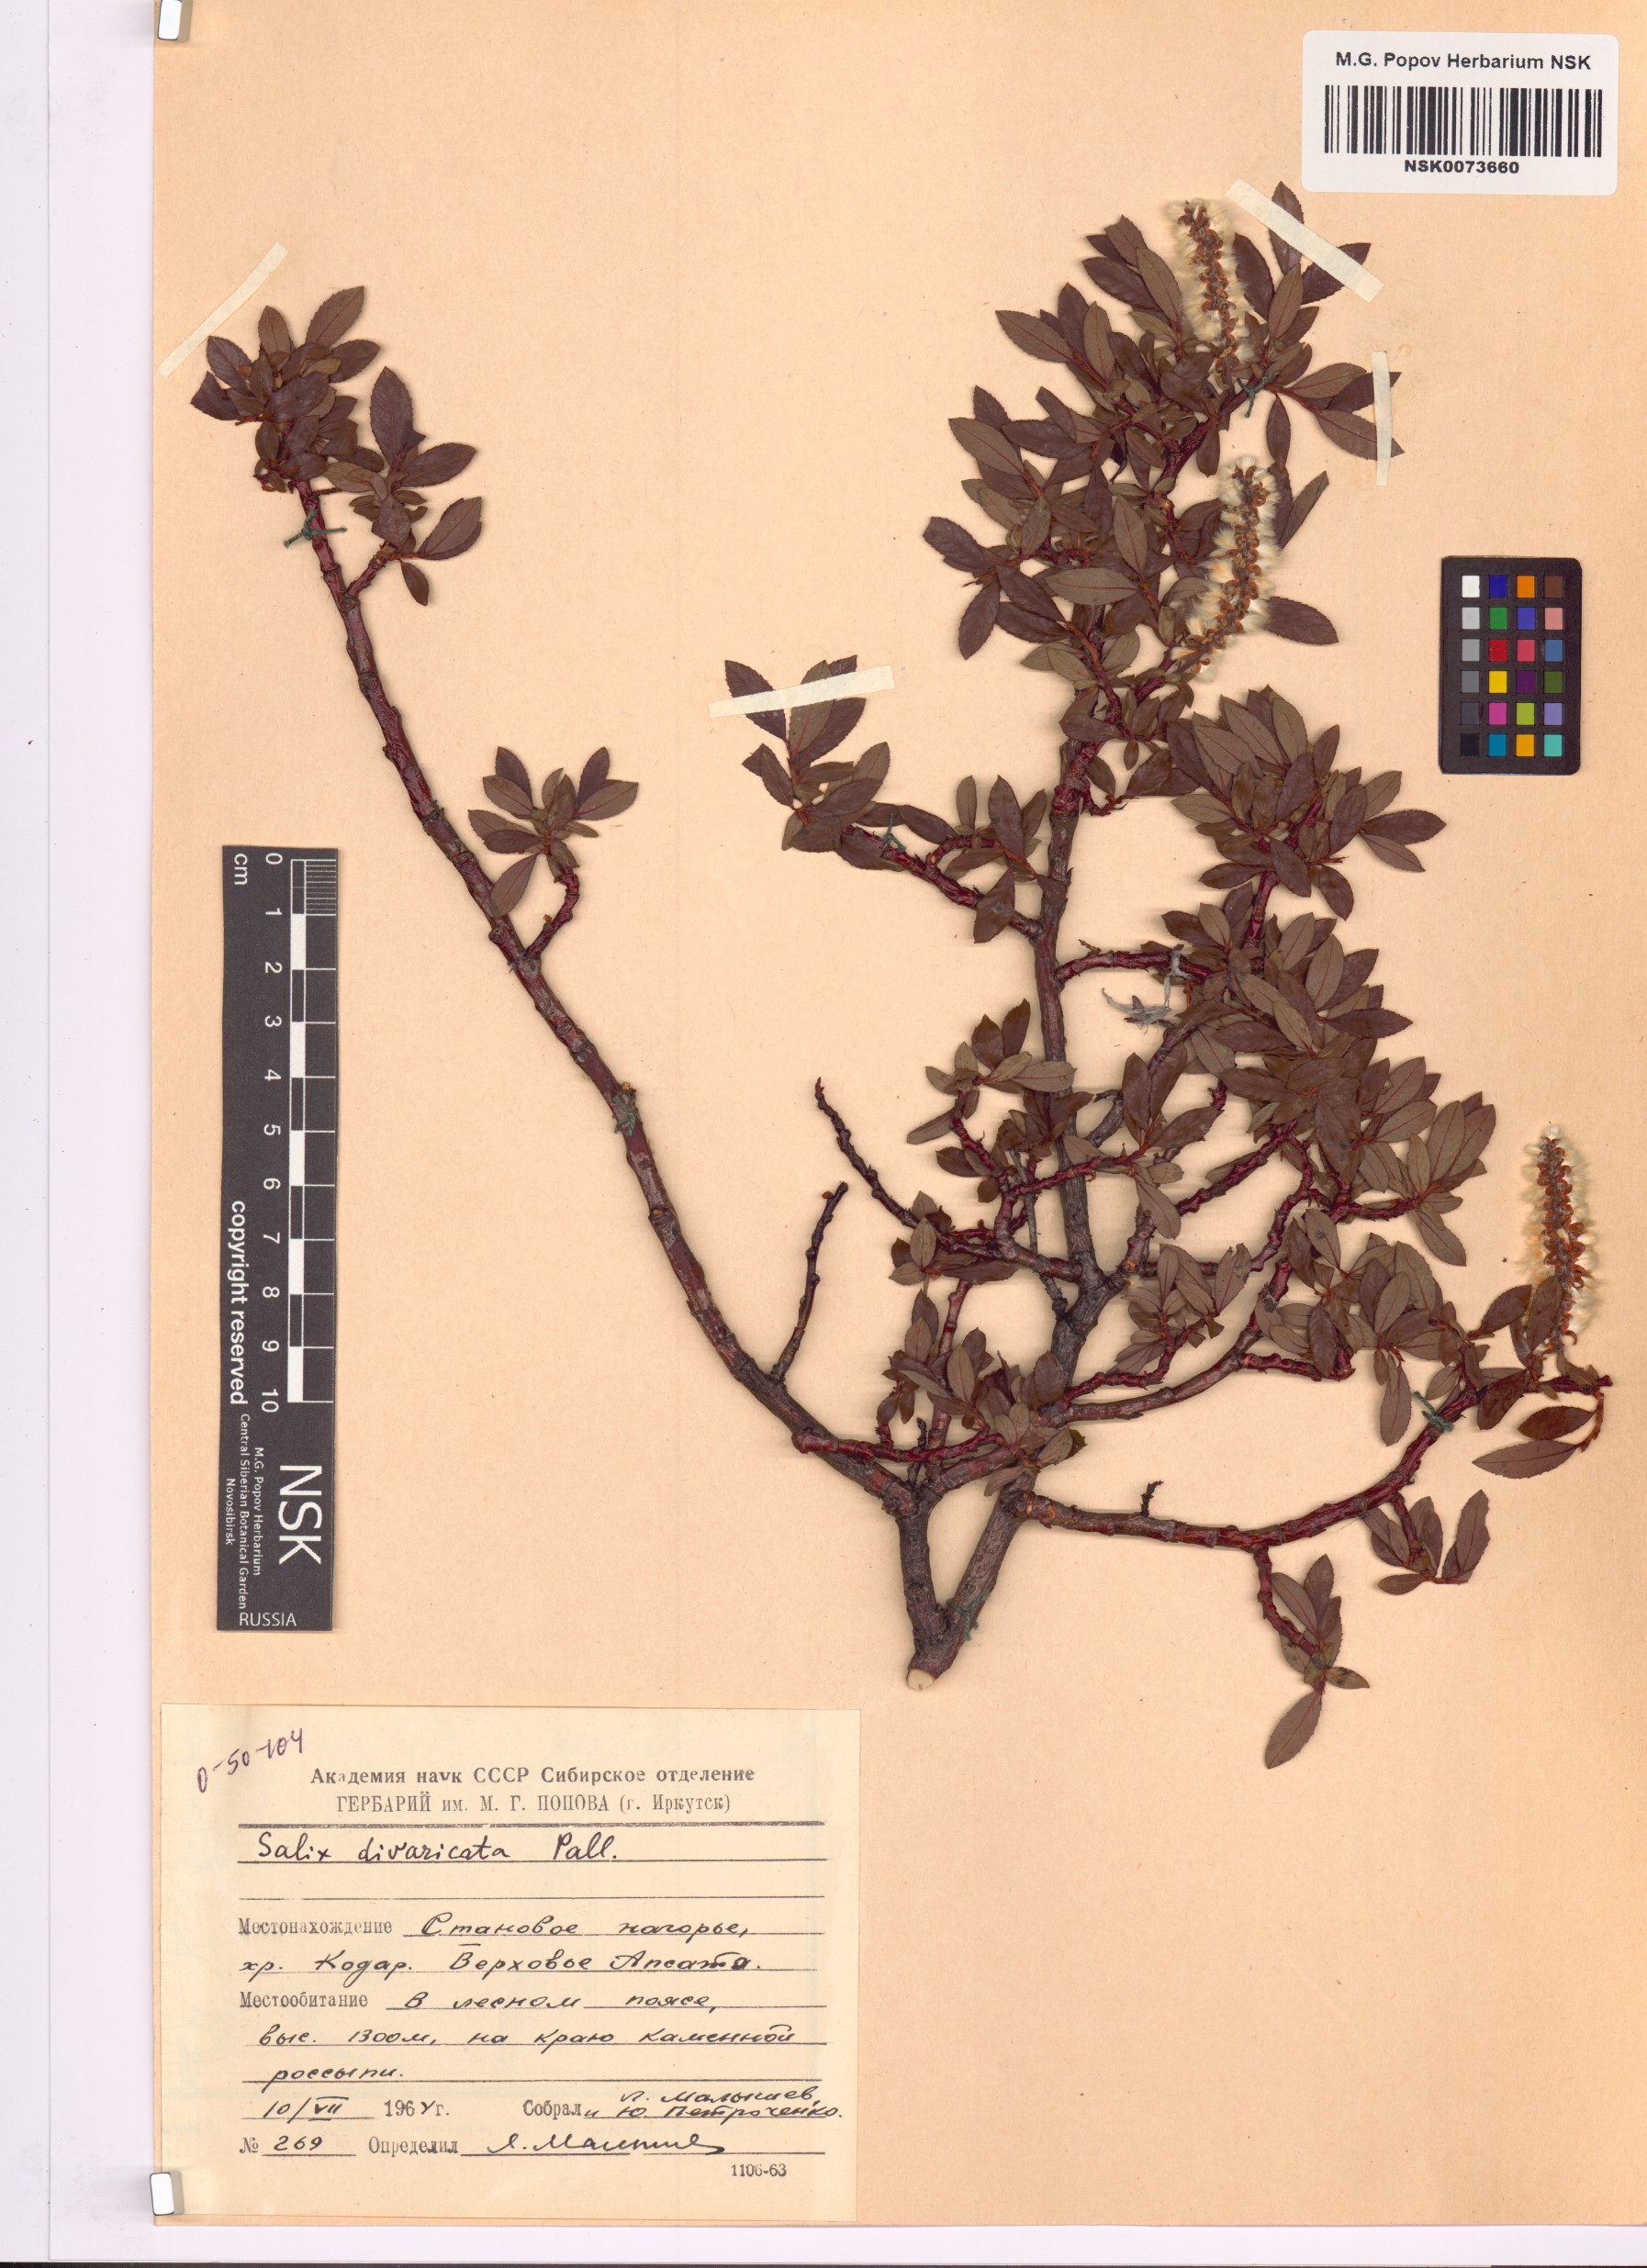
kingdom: Plantae
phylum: Tracheophyta
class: Magnoliopsida
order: Malpighiales
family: Salicaceae
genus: Salix
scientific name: Salix divaricata
